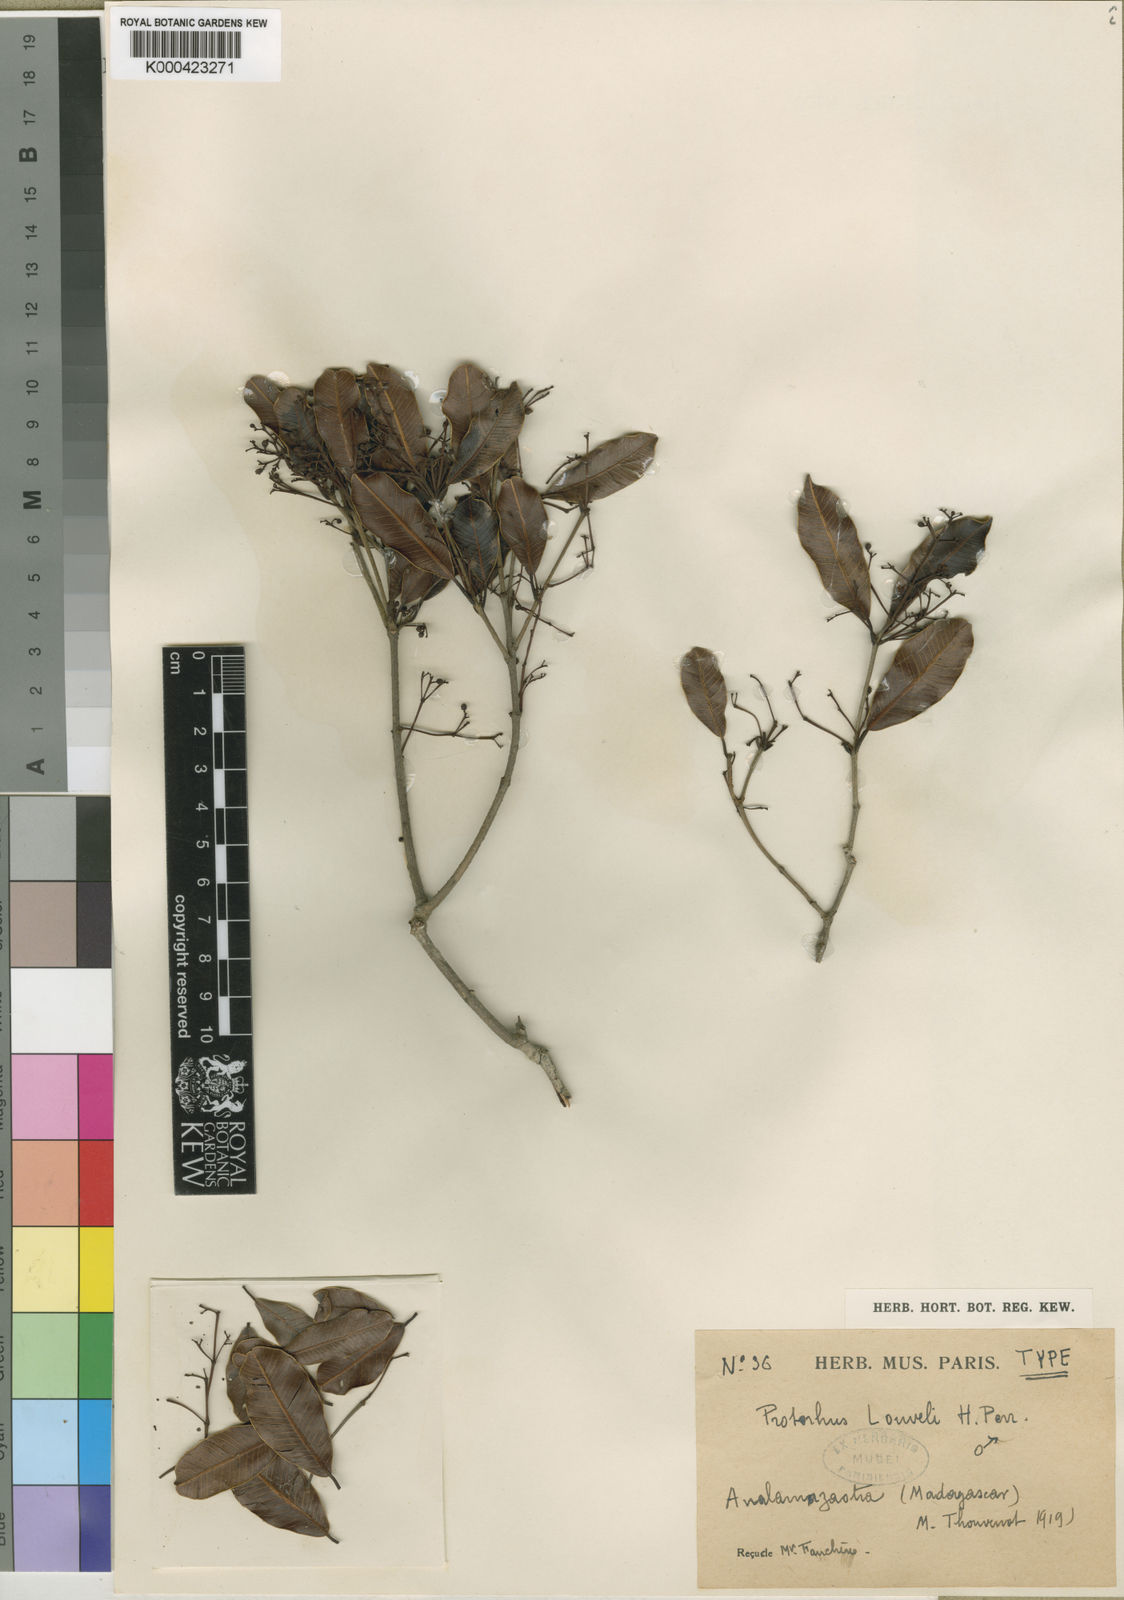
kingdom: Plantae
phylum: Tracheophyta
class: Magnoliopsida
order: Sapindales
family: Anacardiaceae
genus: Abrahamia
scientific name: Abrahamia
